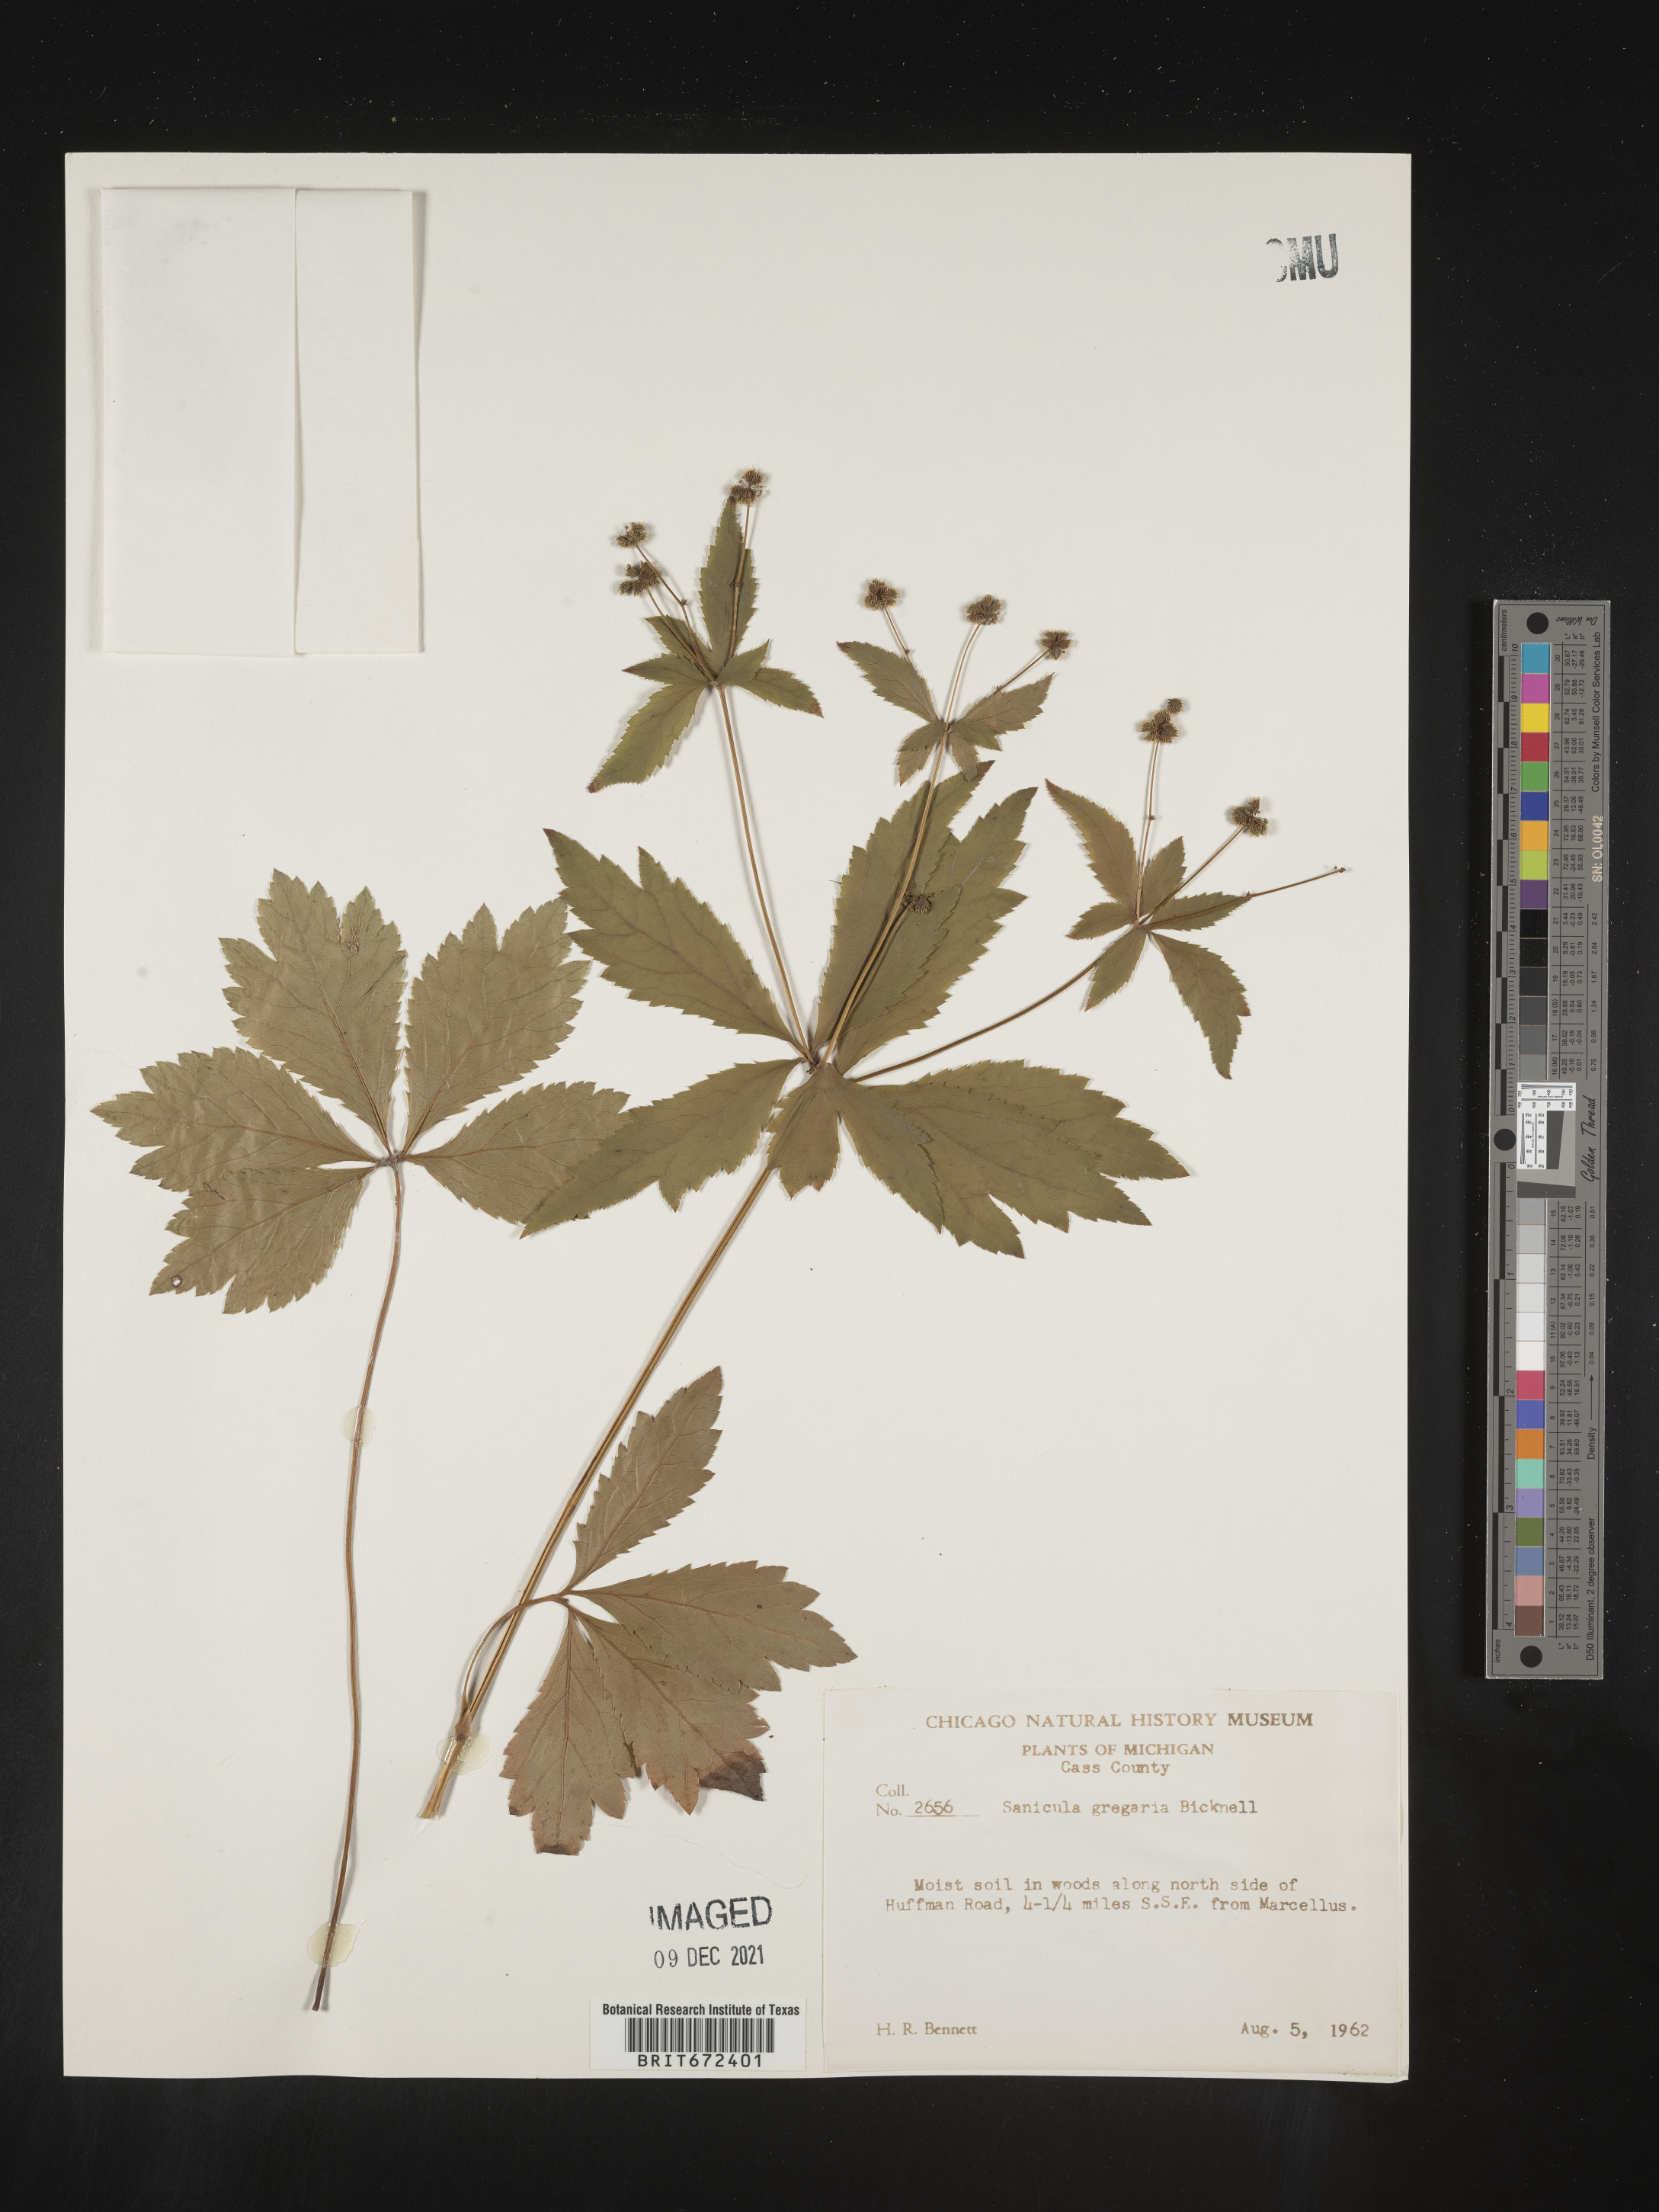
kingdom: Plantae
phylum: Tracheophyta
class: Magnoliopsida
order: Apiales
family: Apiaceae
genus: Sanicula
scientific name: Sanicula odorata
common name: Cluster sanicle
